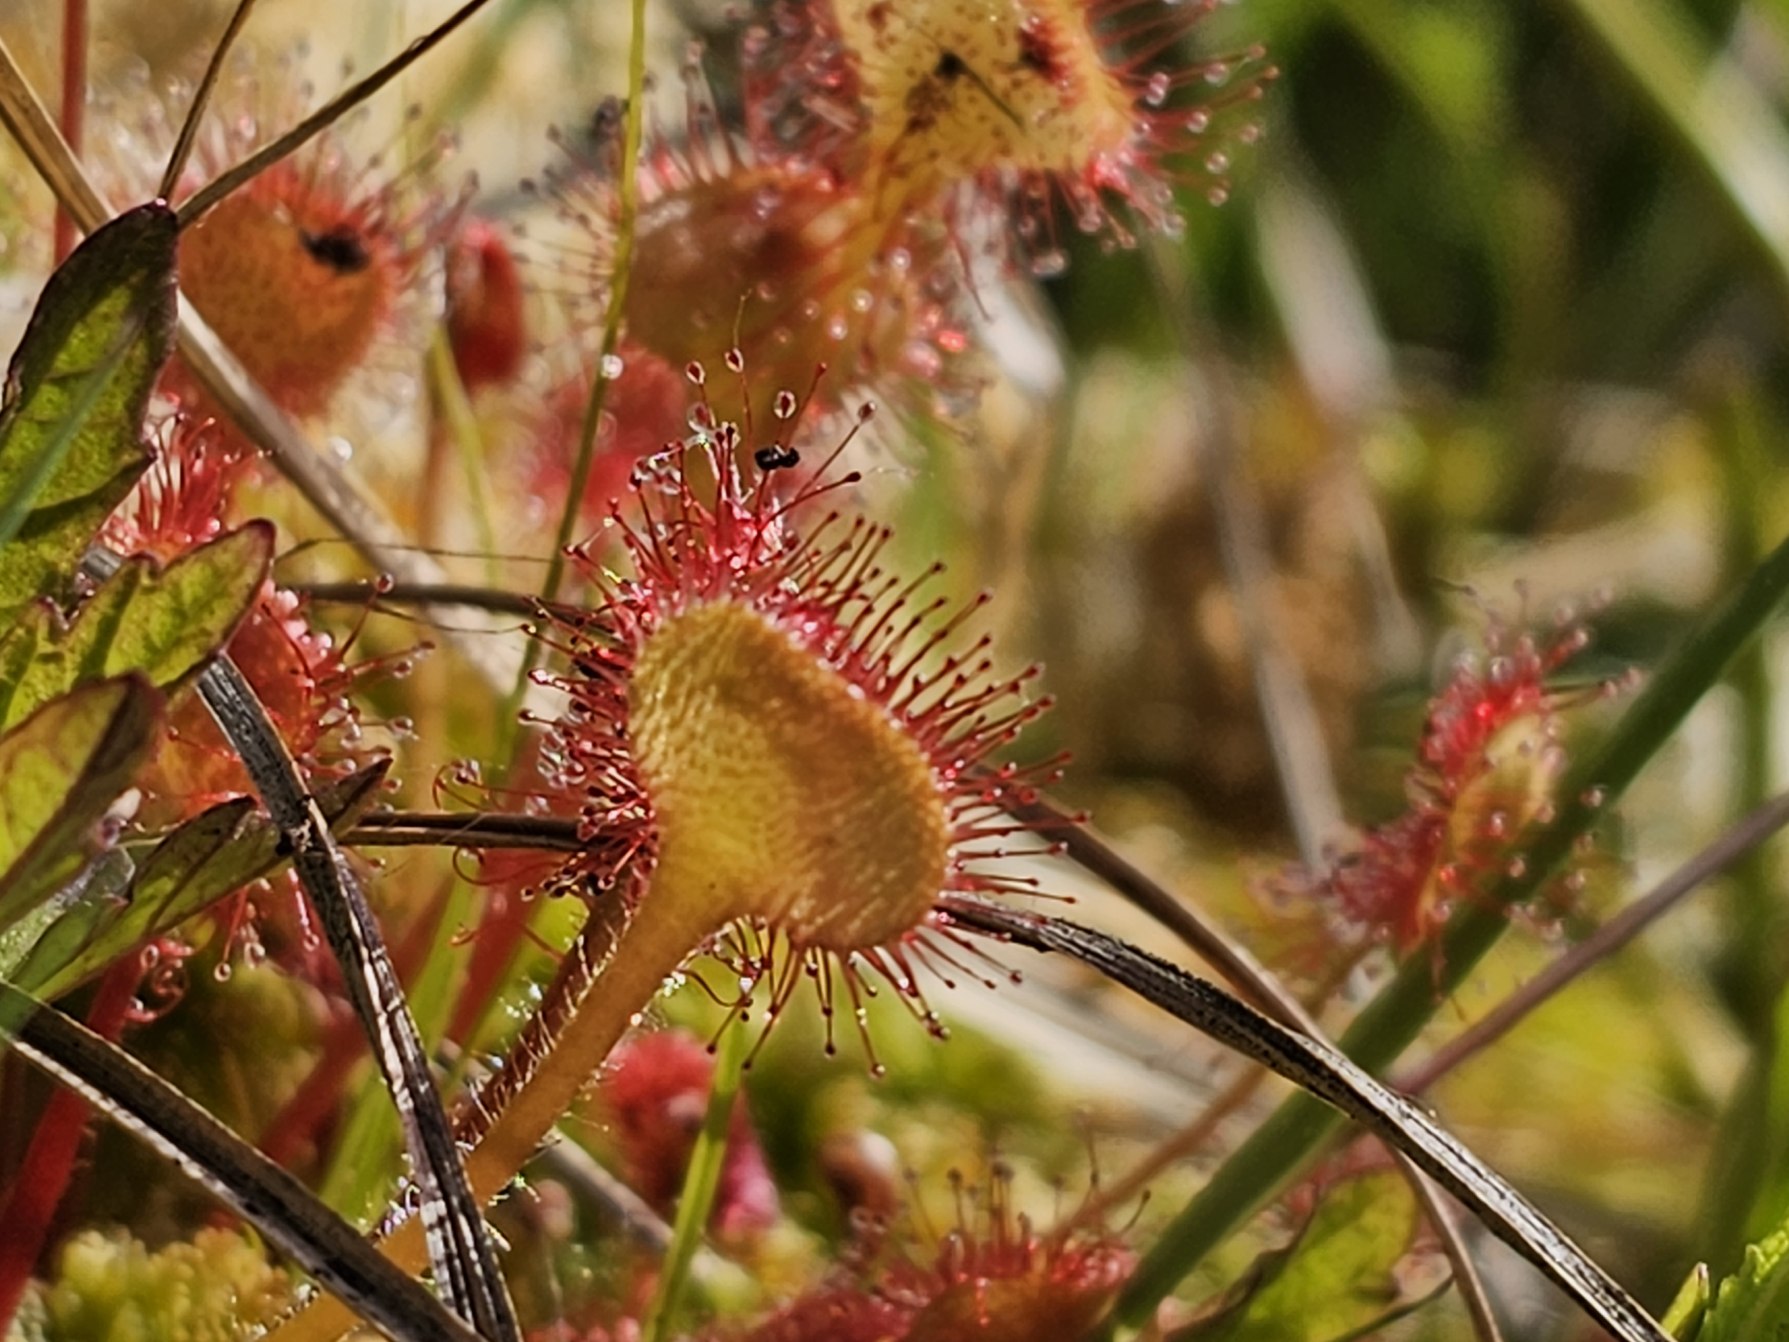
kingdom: Plantae
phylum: Tracheophyta
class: Magnoliopsida
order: Caryophyllales
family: Droseraceae
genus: Drosera
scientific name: Drosera rotundifolia
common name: Rundbladet soldug
